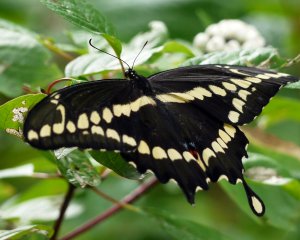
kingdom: Animalia
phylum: Arthropoda
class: Insecta
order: Lepidoptera
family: Papilionidae
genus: Papilio
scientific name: Papilio cresphontes
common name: Eastern Giant Swallowtail
